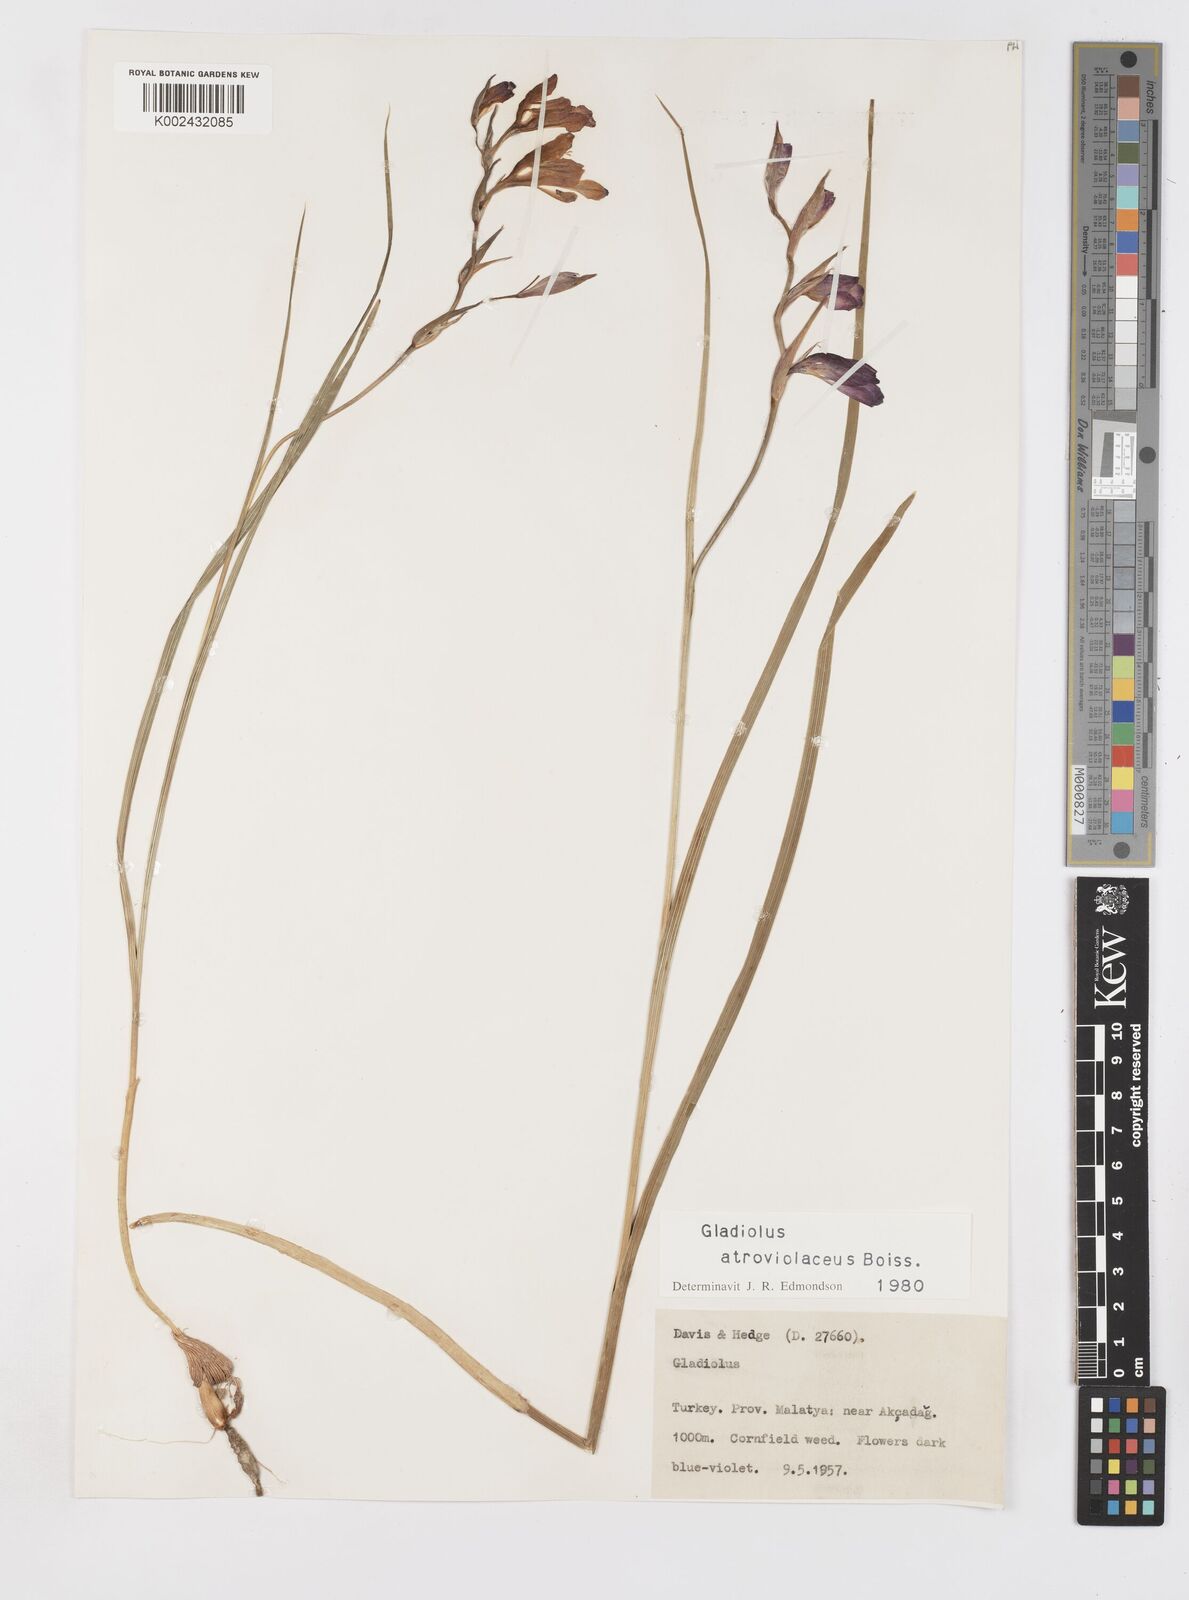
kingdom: Plantae
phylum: Tracheophyta
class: Liliopsida
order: Asparagales
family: Iridaceae
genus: Gladiolus
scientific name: Gladiolus atroviolaceus
